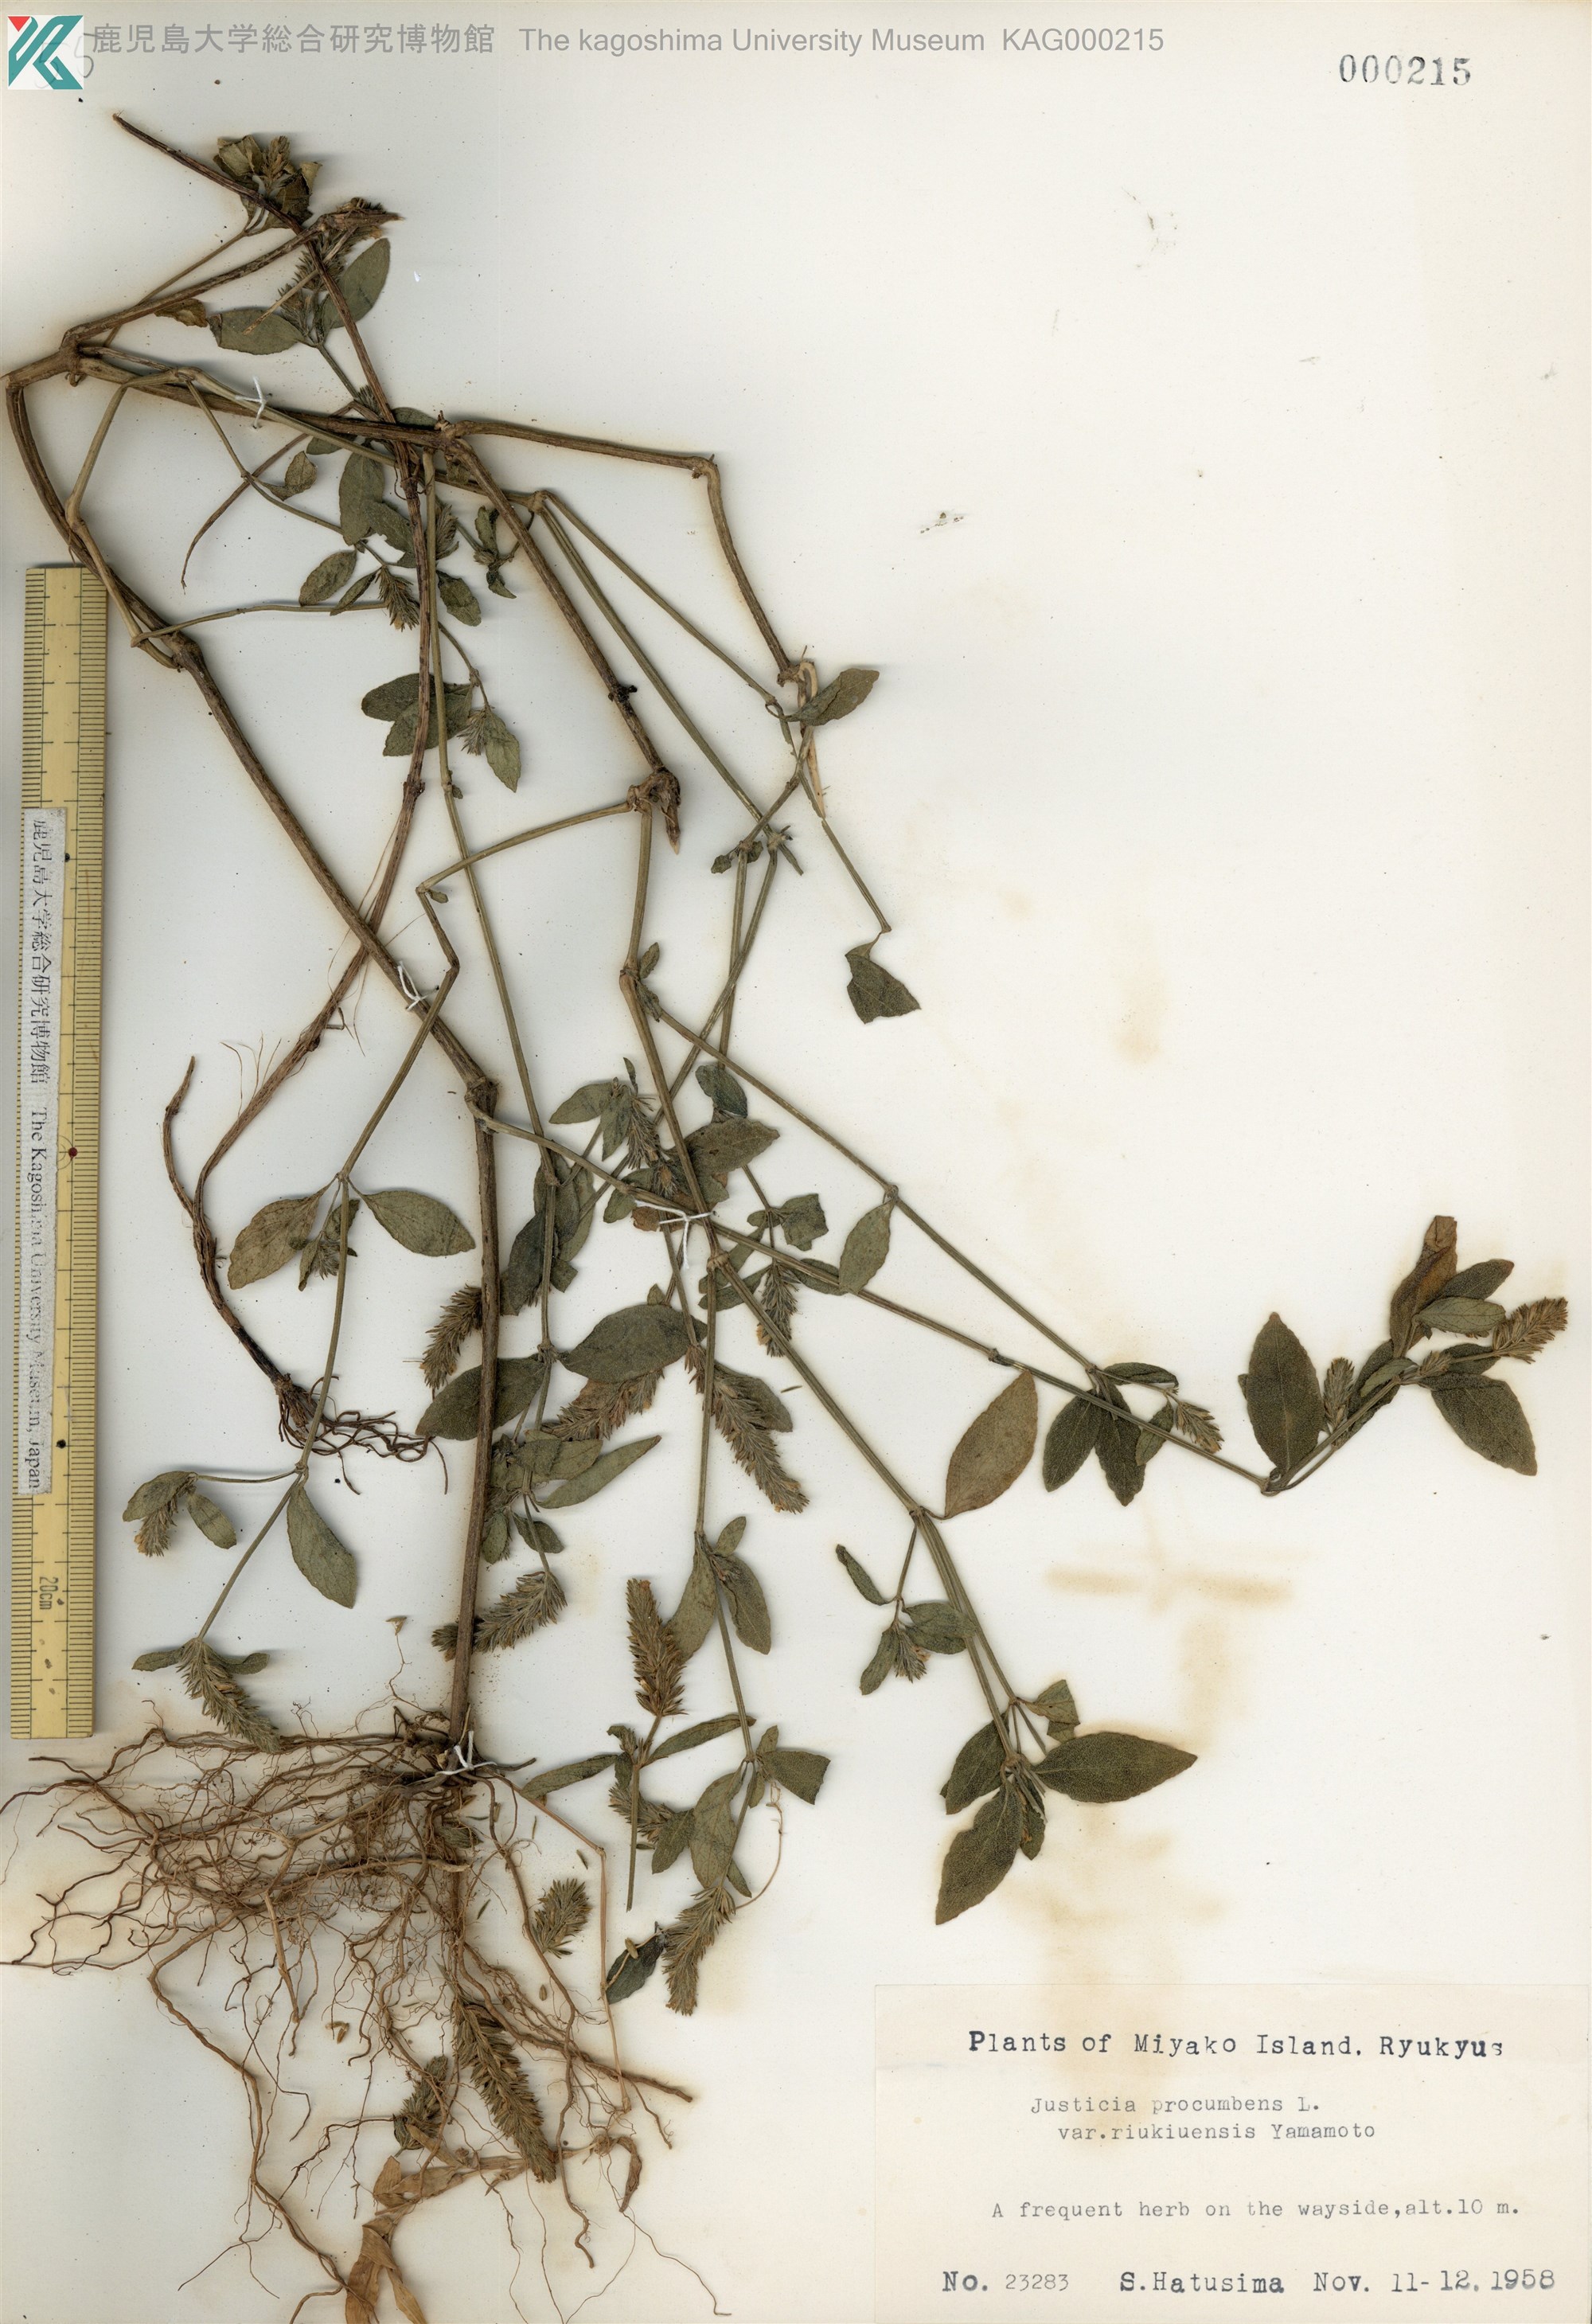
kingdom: Plantae
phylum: Tracheophyta
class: Magnoliopsida
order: Lamiales
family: Acanthaceae
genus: Rostellularia
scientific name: Rostellularia procumbens
